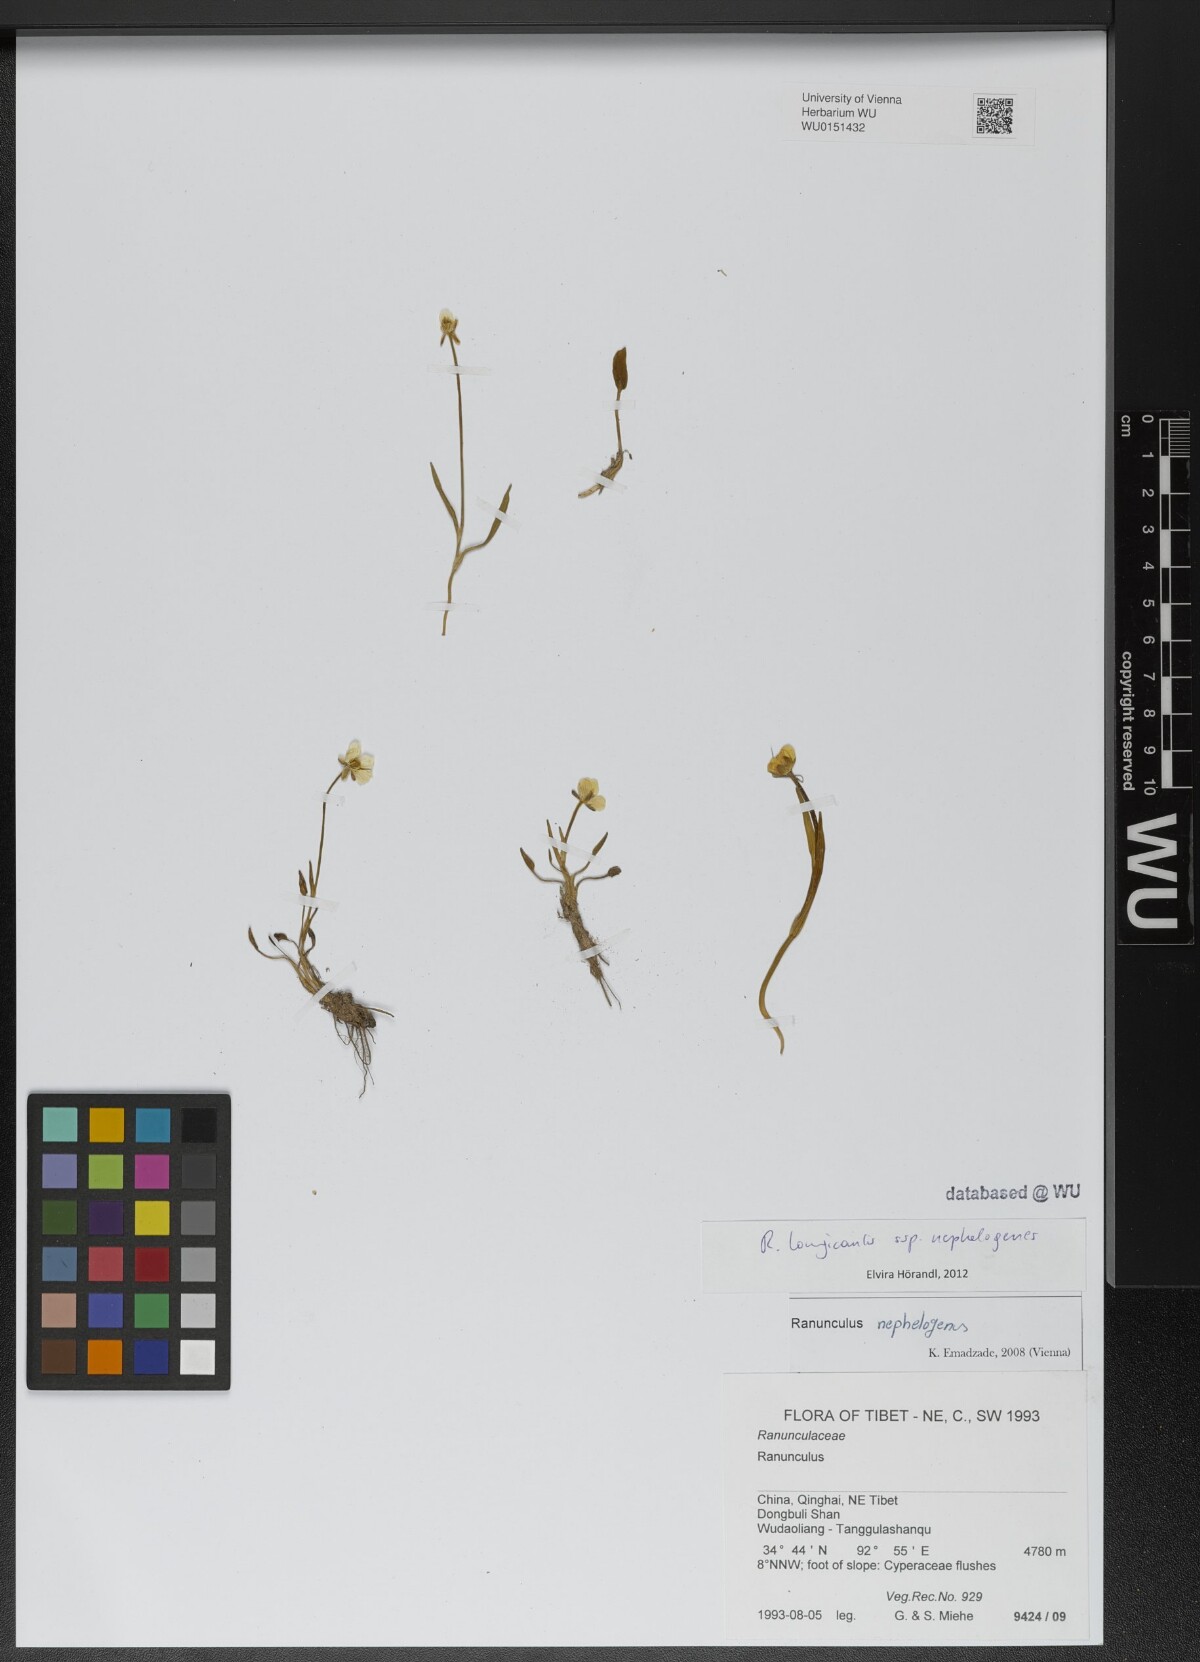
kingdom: Plantae
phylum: Tracheophyta
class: Magnoliopsida
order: Ranunculales
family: Ranunculaceae
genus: Ranunculus
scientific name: Ranunculus pulchellus
